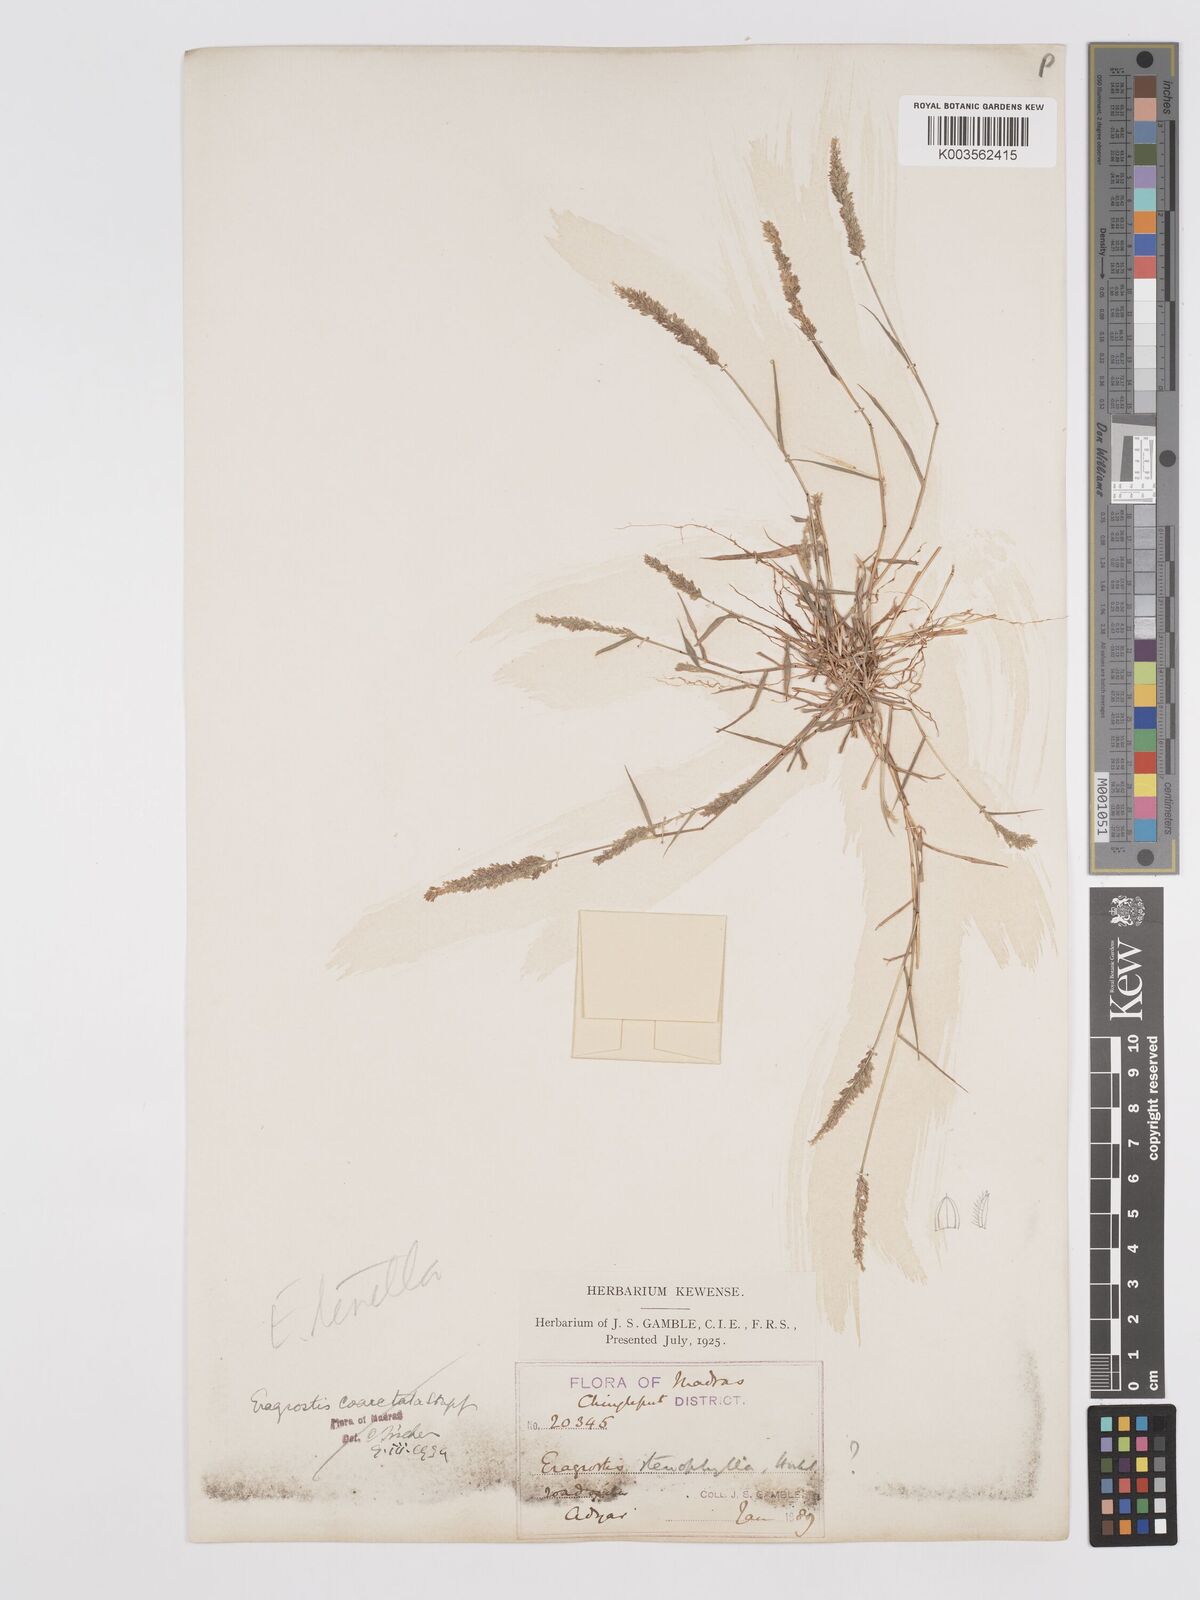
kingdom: Plantae
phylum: Tracheophyta
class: Liliopsida
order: Poales
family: Poaceae
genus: Eragrostis
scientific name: Eragrostis coarctata
